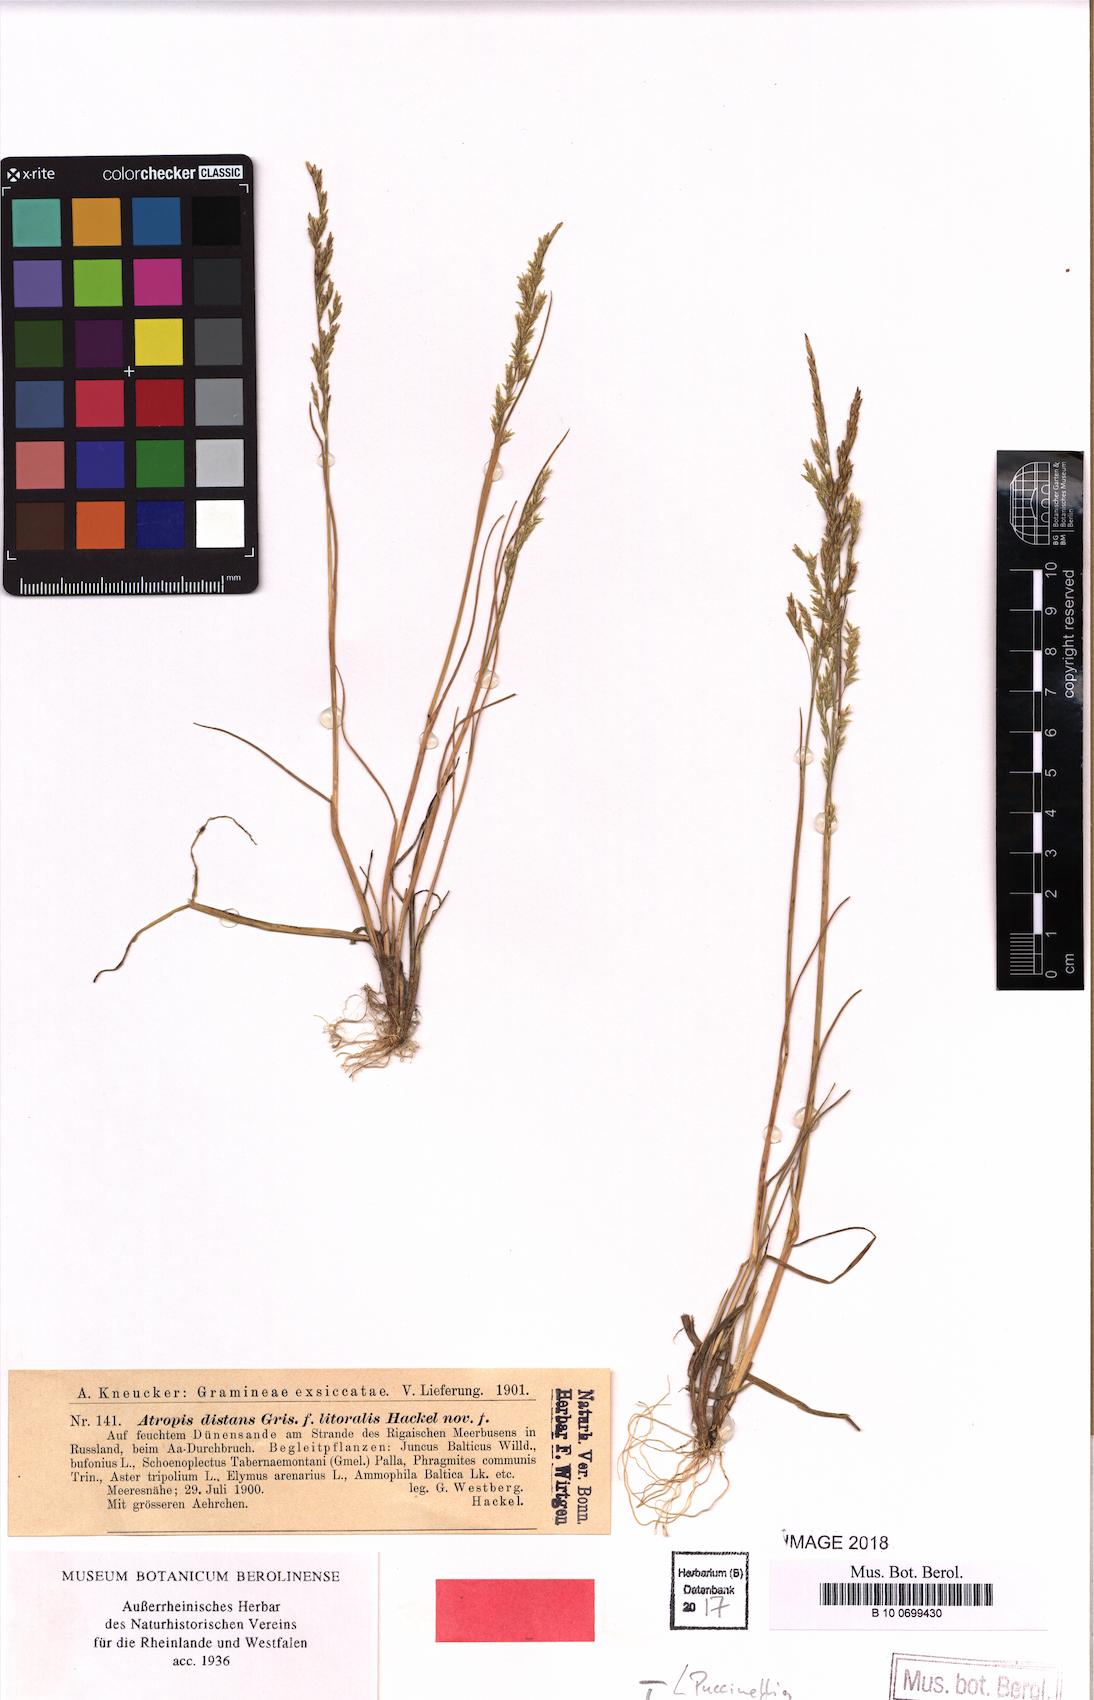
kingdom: Plantae
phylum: Tracheophyta
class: Liliopsida
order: Poales
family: Poaceae
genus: Puccinellia
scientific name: Puccinellia distans
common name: Weeping alkaligrass
